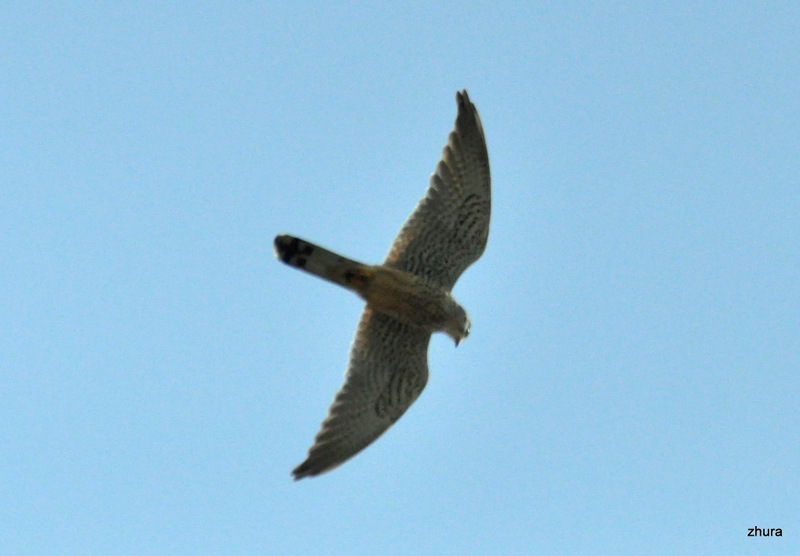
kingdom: Animalia
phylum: Chordata
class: Aves
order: Falconiformes
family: Falconidae
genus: Falco
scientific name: Falco tinnunculus
